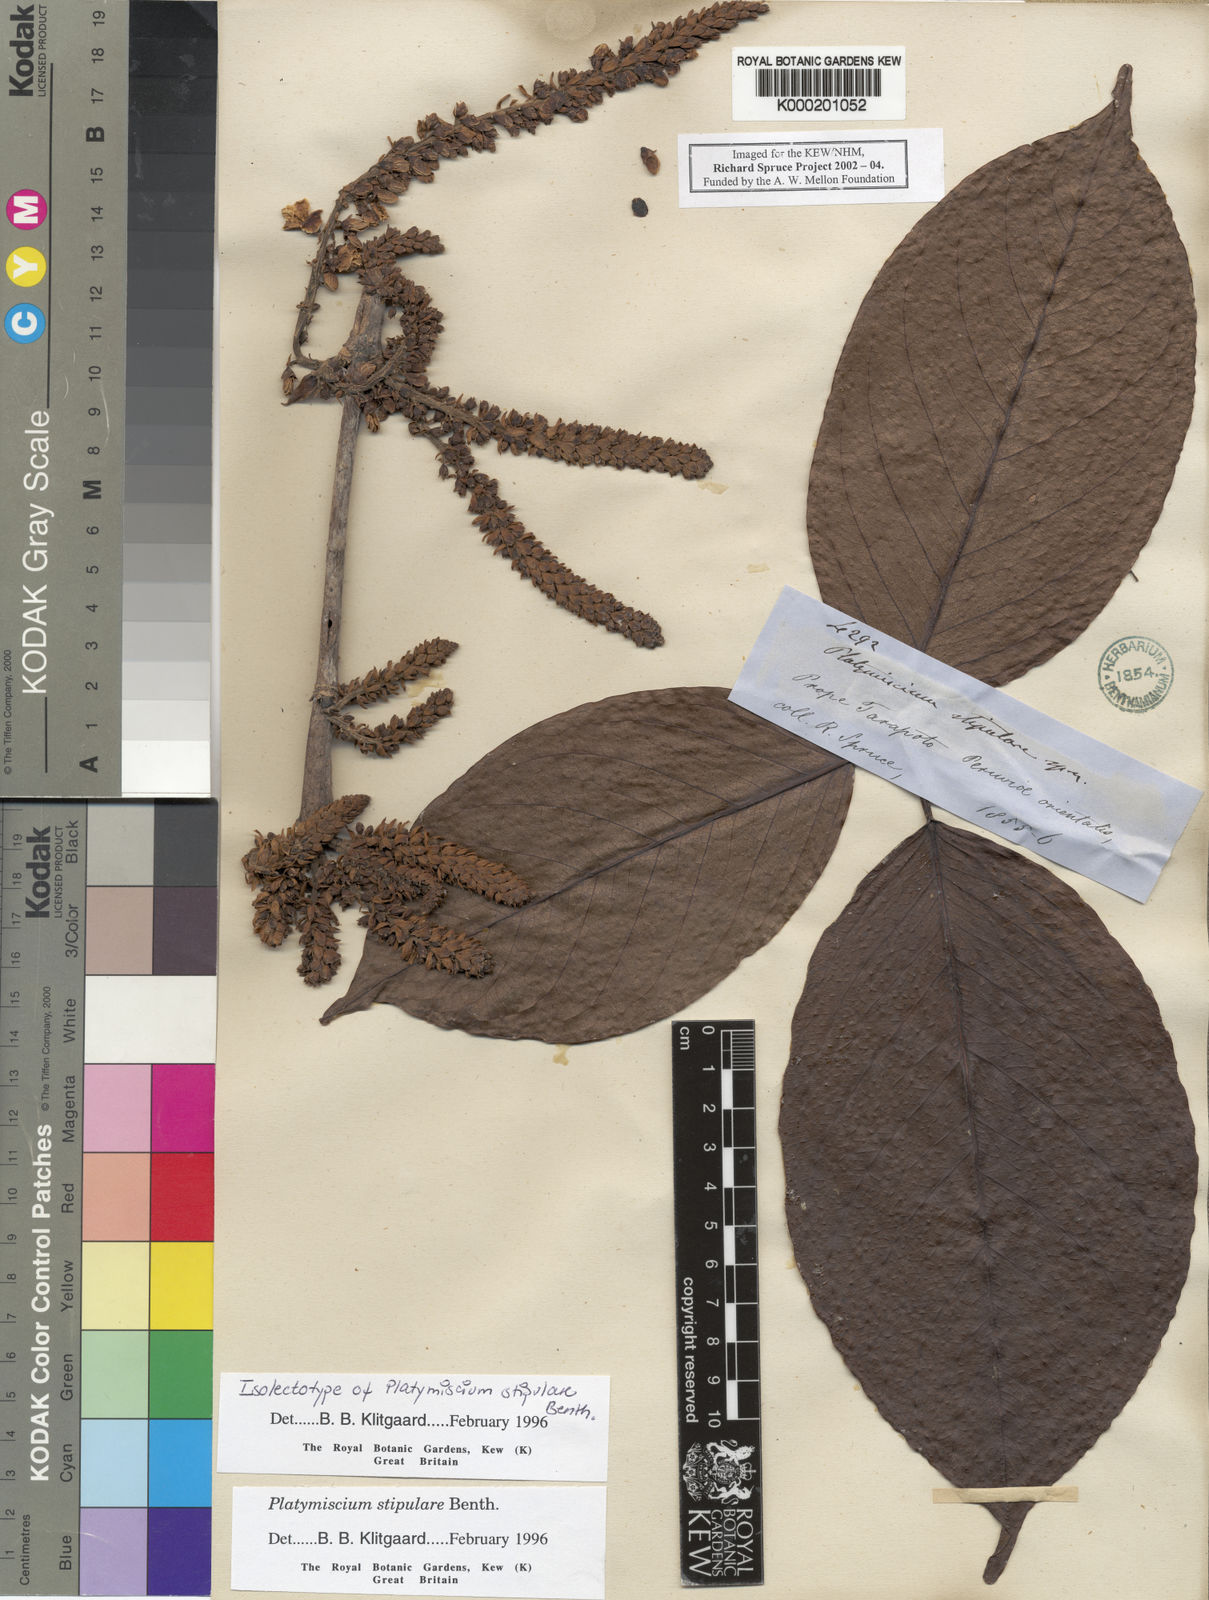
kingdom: Plantae
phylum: Tracheophyta
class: Magnoliopsida
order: Fabales
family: Fabaceae
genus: Platymiscium
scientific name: Platymiscium stipulare
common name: Legume
